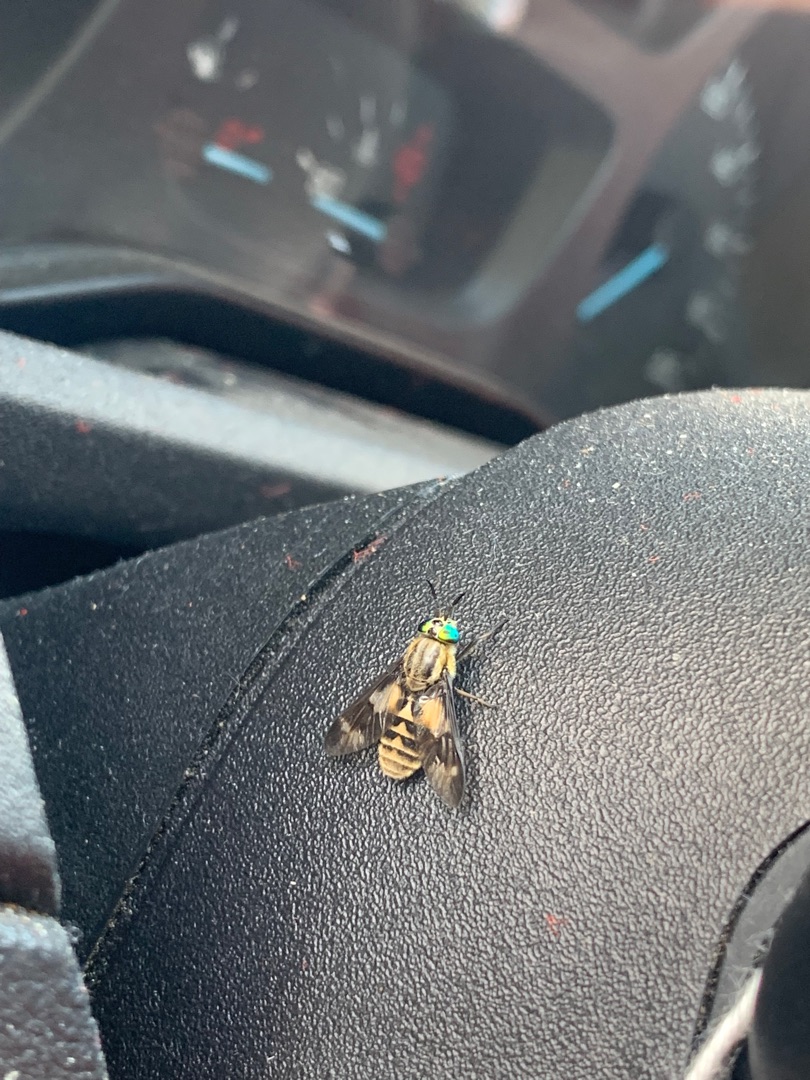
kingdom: Animalia
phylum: Arthropoda
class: Insecta
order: Diptera
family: Tabanidae
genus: Chrysops
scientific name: Chrysops relictus
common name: Guldklæg
